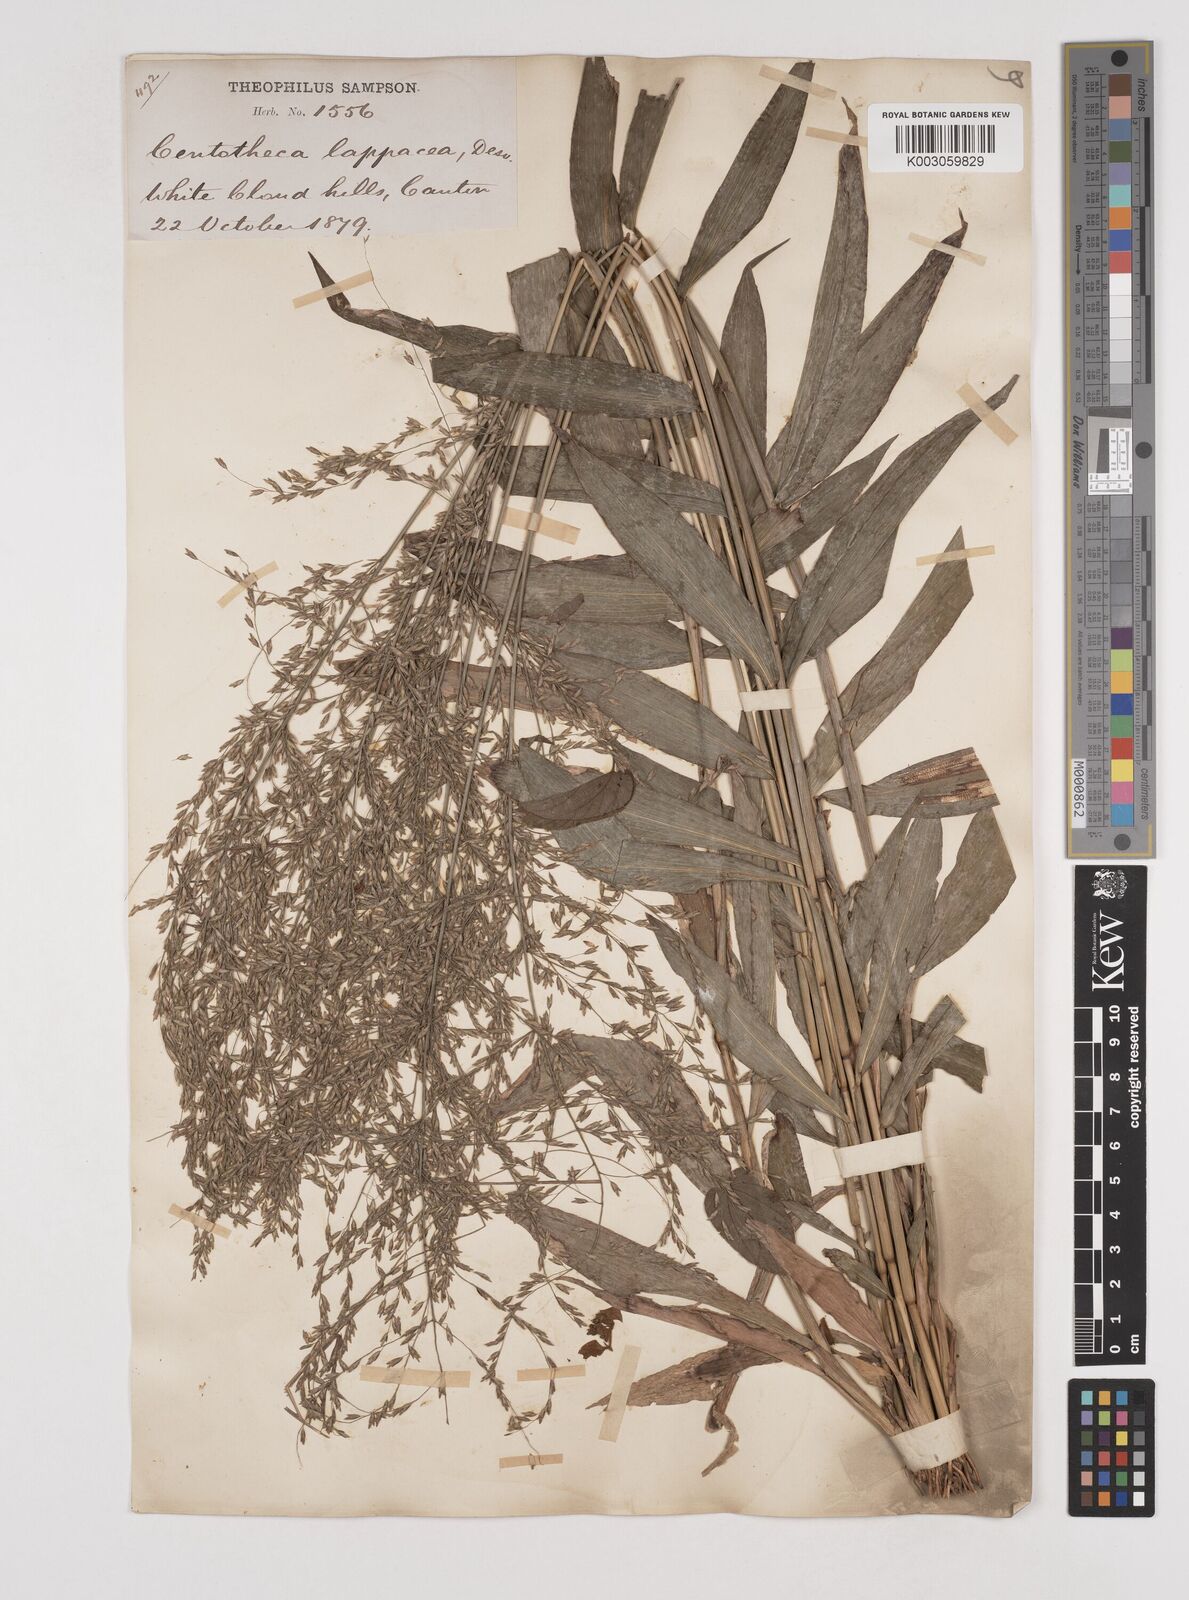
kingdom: Plantae
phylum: Tracheophyta
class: Liliopsida
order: Poales
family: Poaceae
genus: Centotheca
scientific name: Centotheca lappacea
